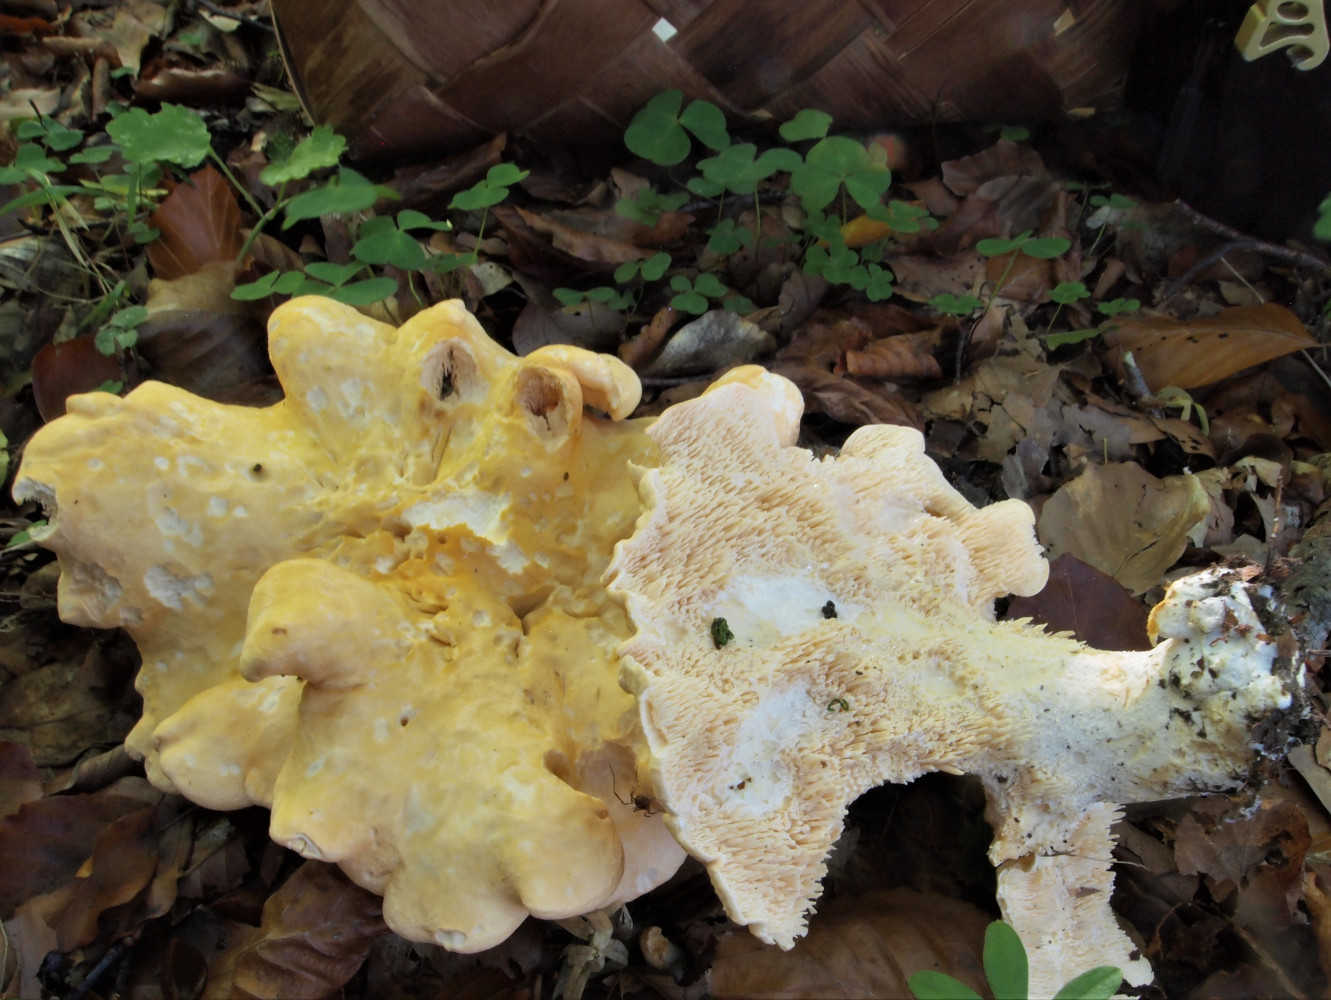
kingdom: Fungi
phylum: Basidiomycota
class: Agaricomycetes
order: Cantharellales
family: Hydnaceae
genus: Hydnum
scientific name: Hydnum repandum
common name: almindelig pigsvamp
